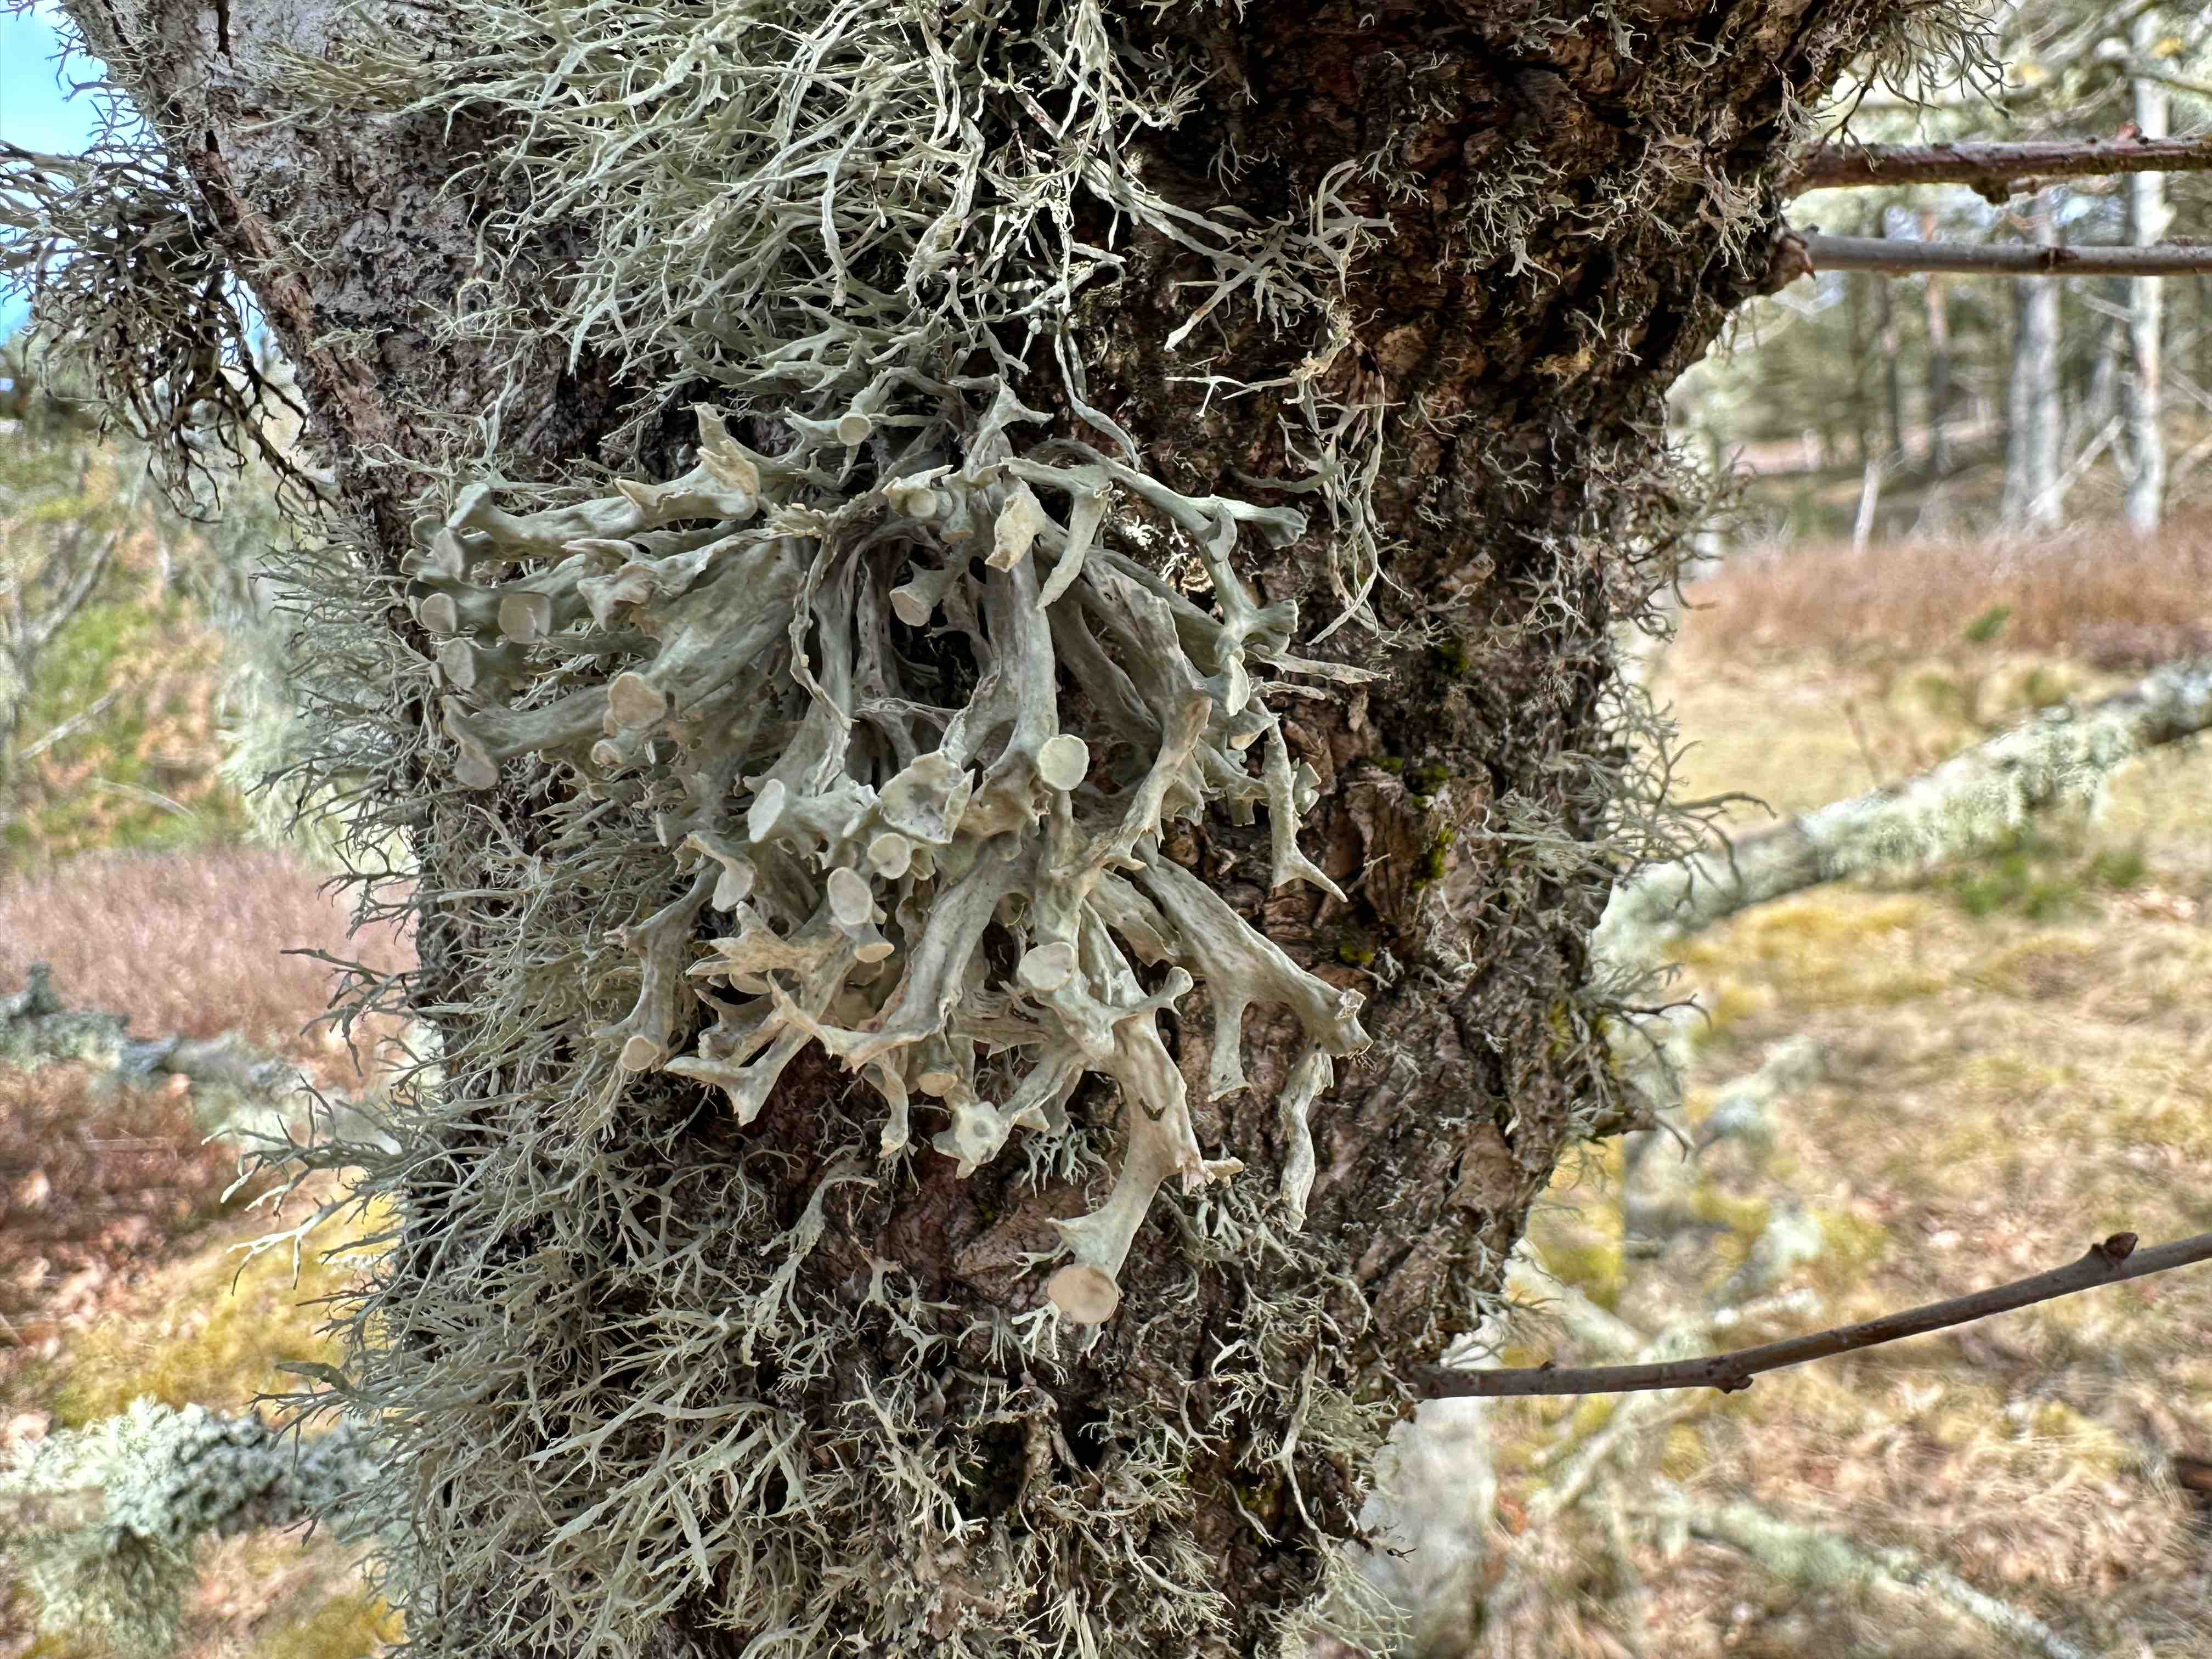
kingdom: Fungi
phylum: Ascomycota
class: Lecanoromycetes
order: Lecanorales
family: Ramalinaceae
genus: Ramalina
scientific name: Ramalina fastigiata
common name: tue-grenlav
